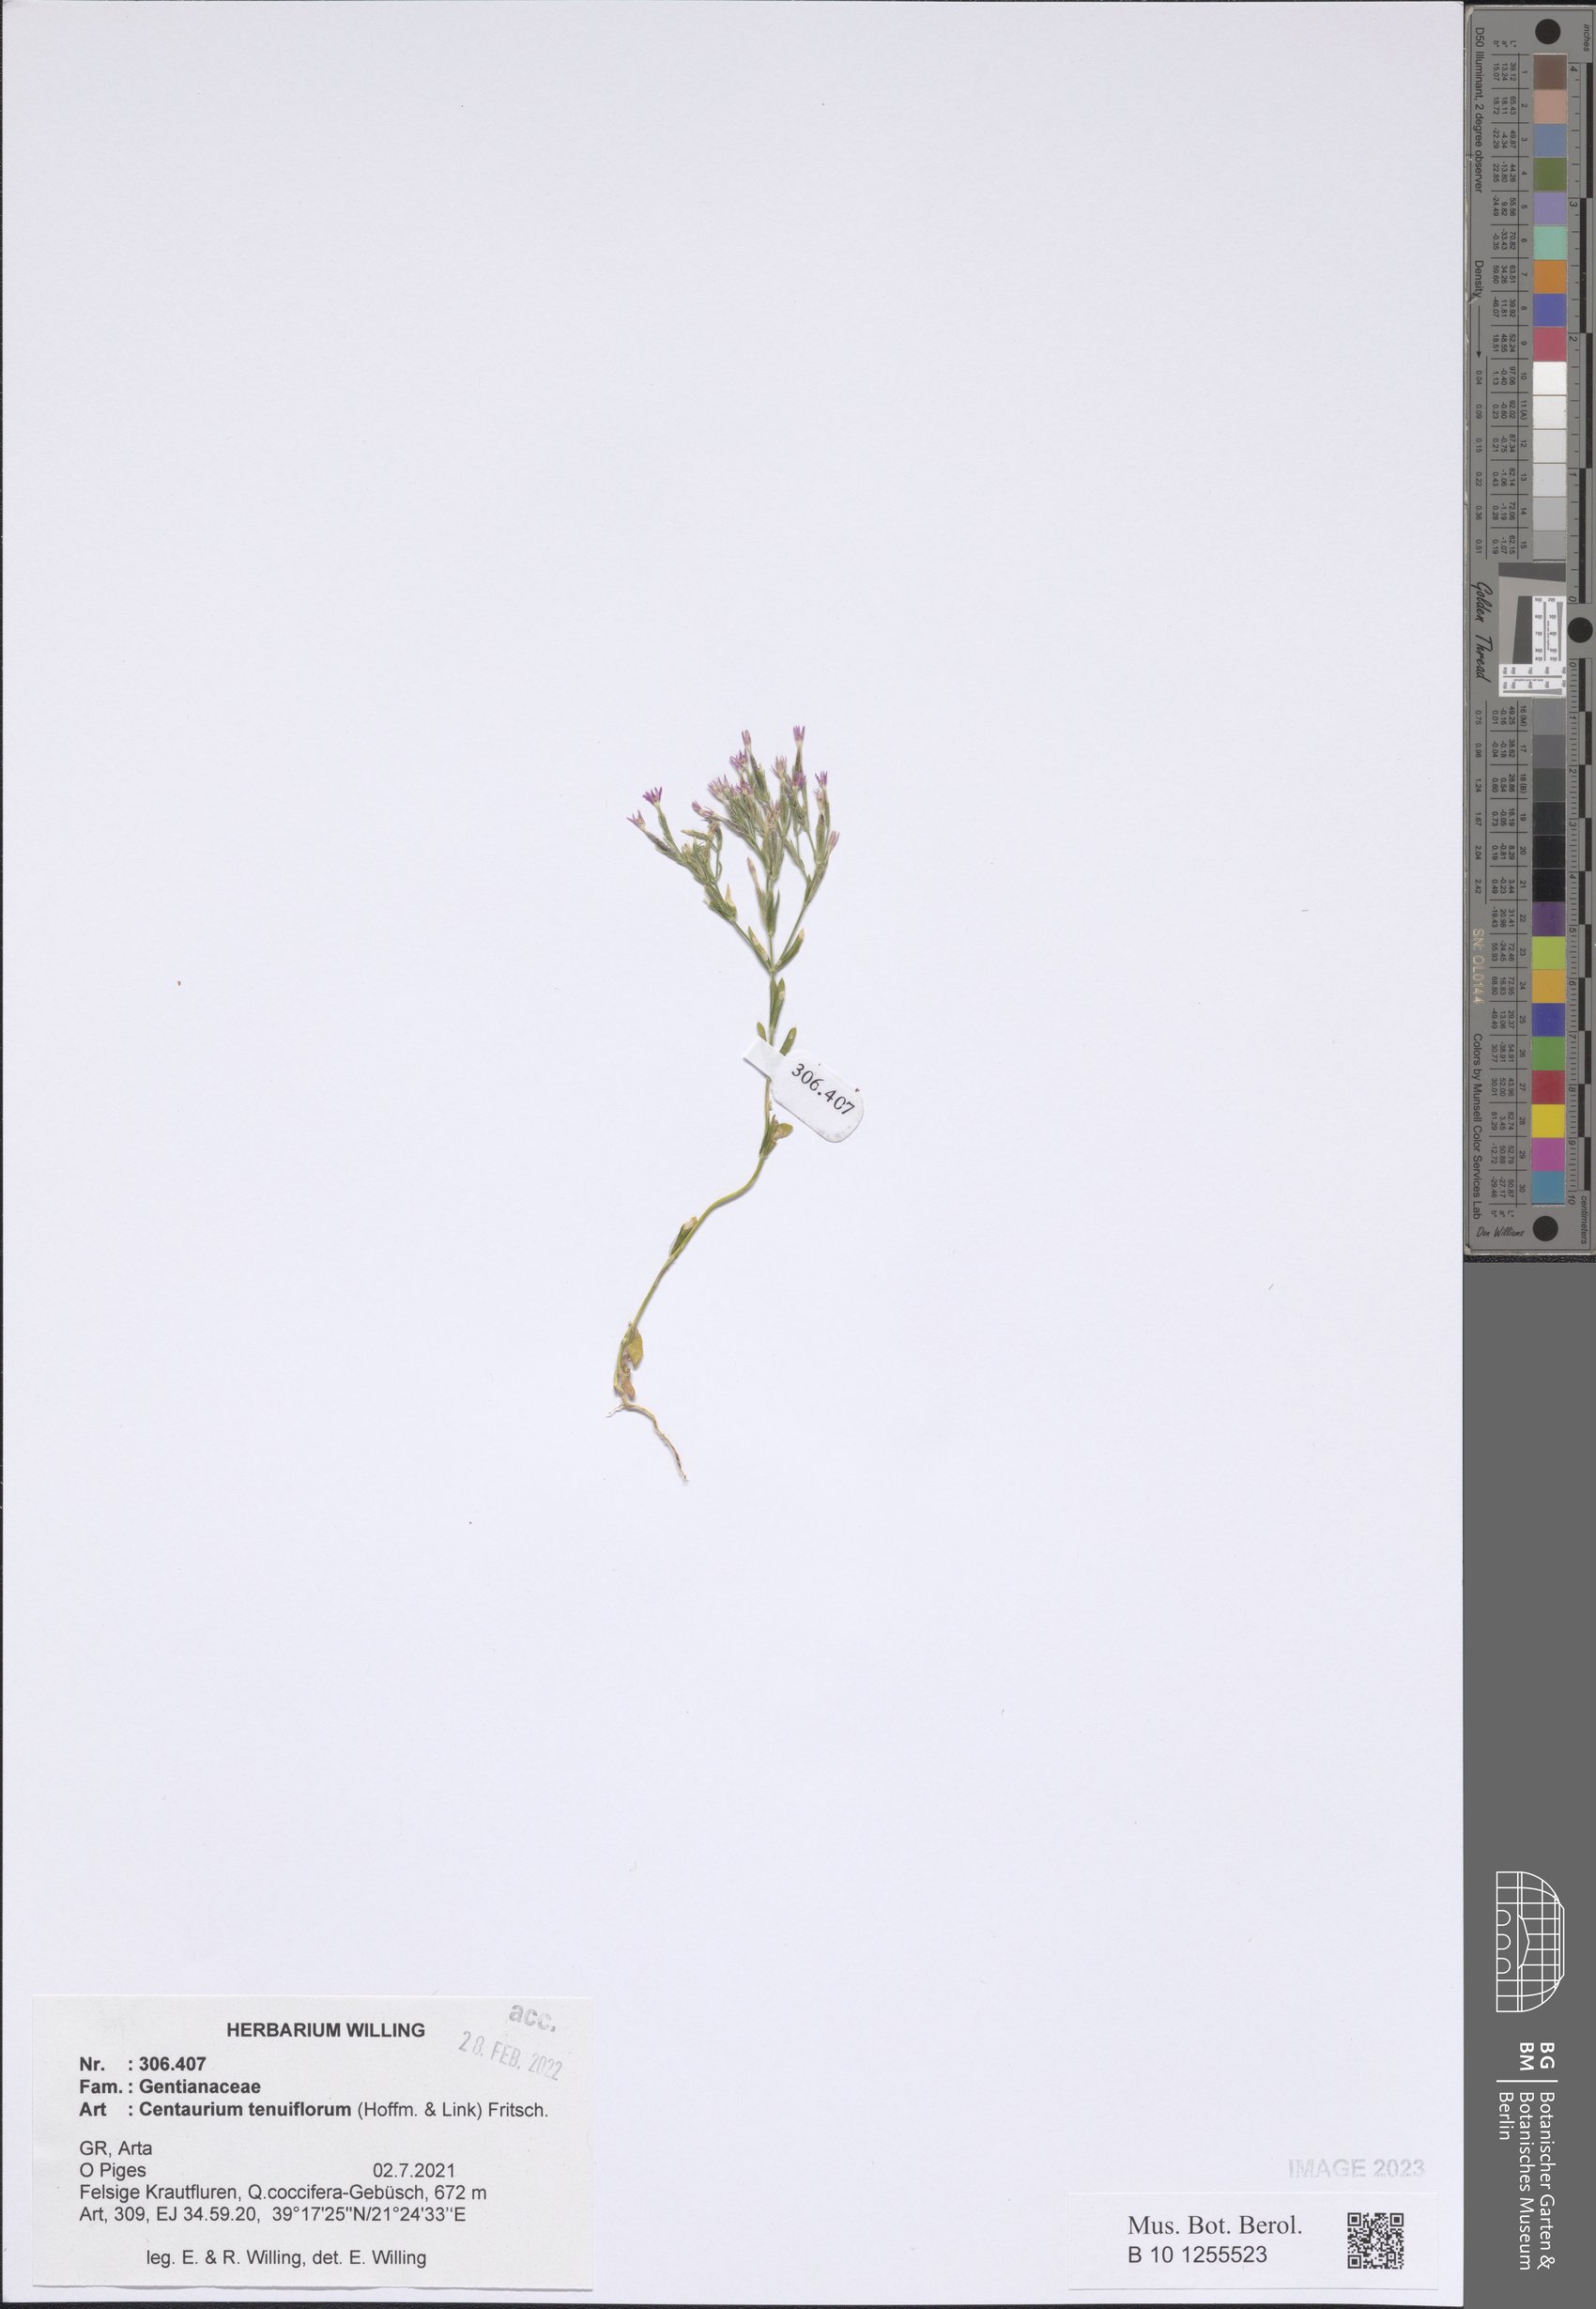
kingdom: Plantae
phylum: Tracheophyta
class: Magnoliopsida
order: Gentianales
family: Gentianaceae
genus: Centaurium
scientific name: Centaurium tenuiflorum
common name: Slender centaury
